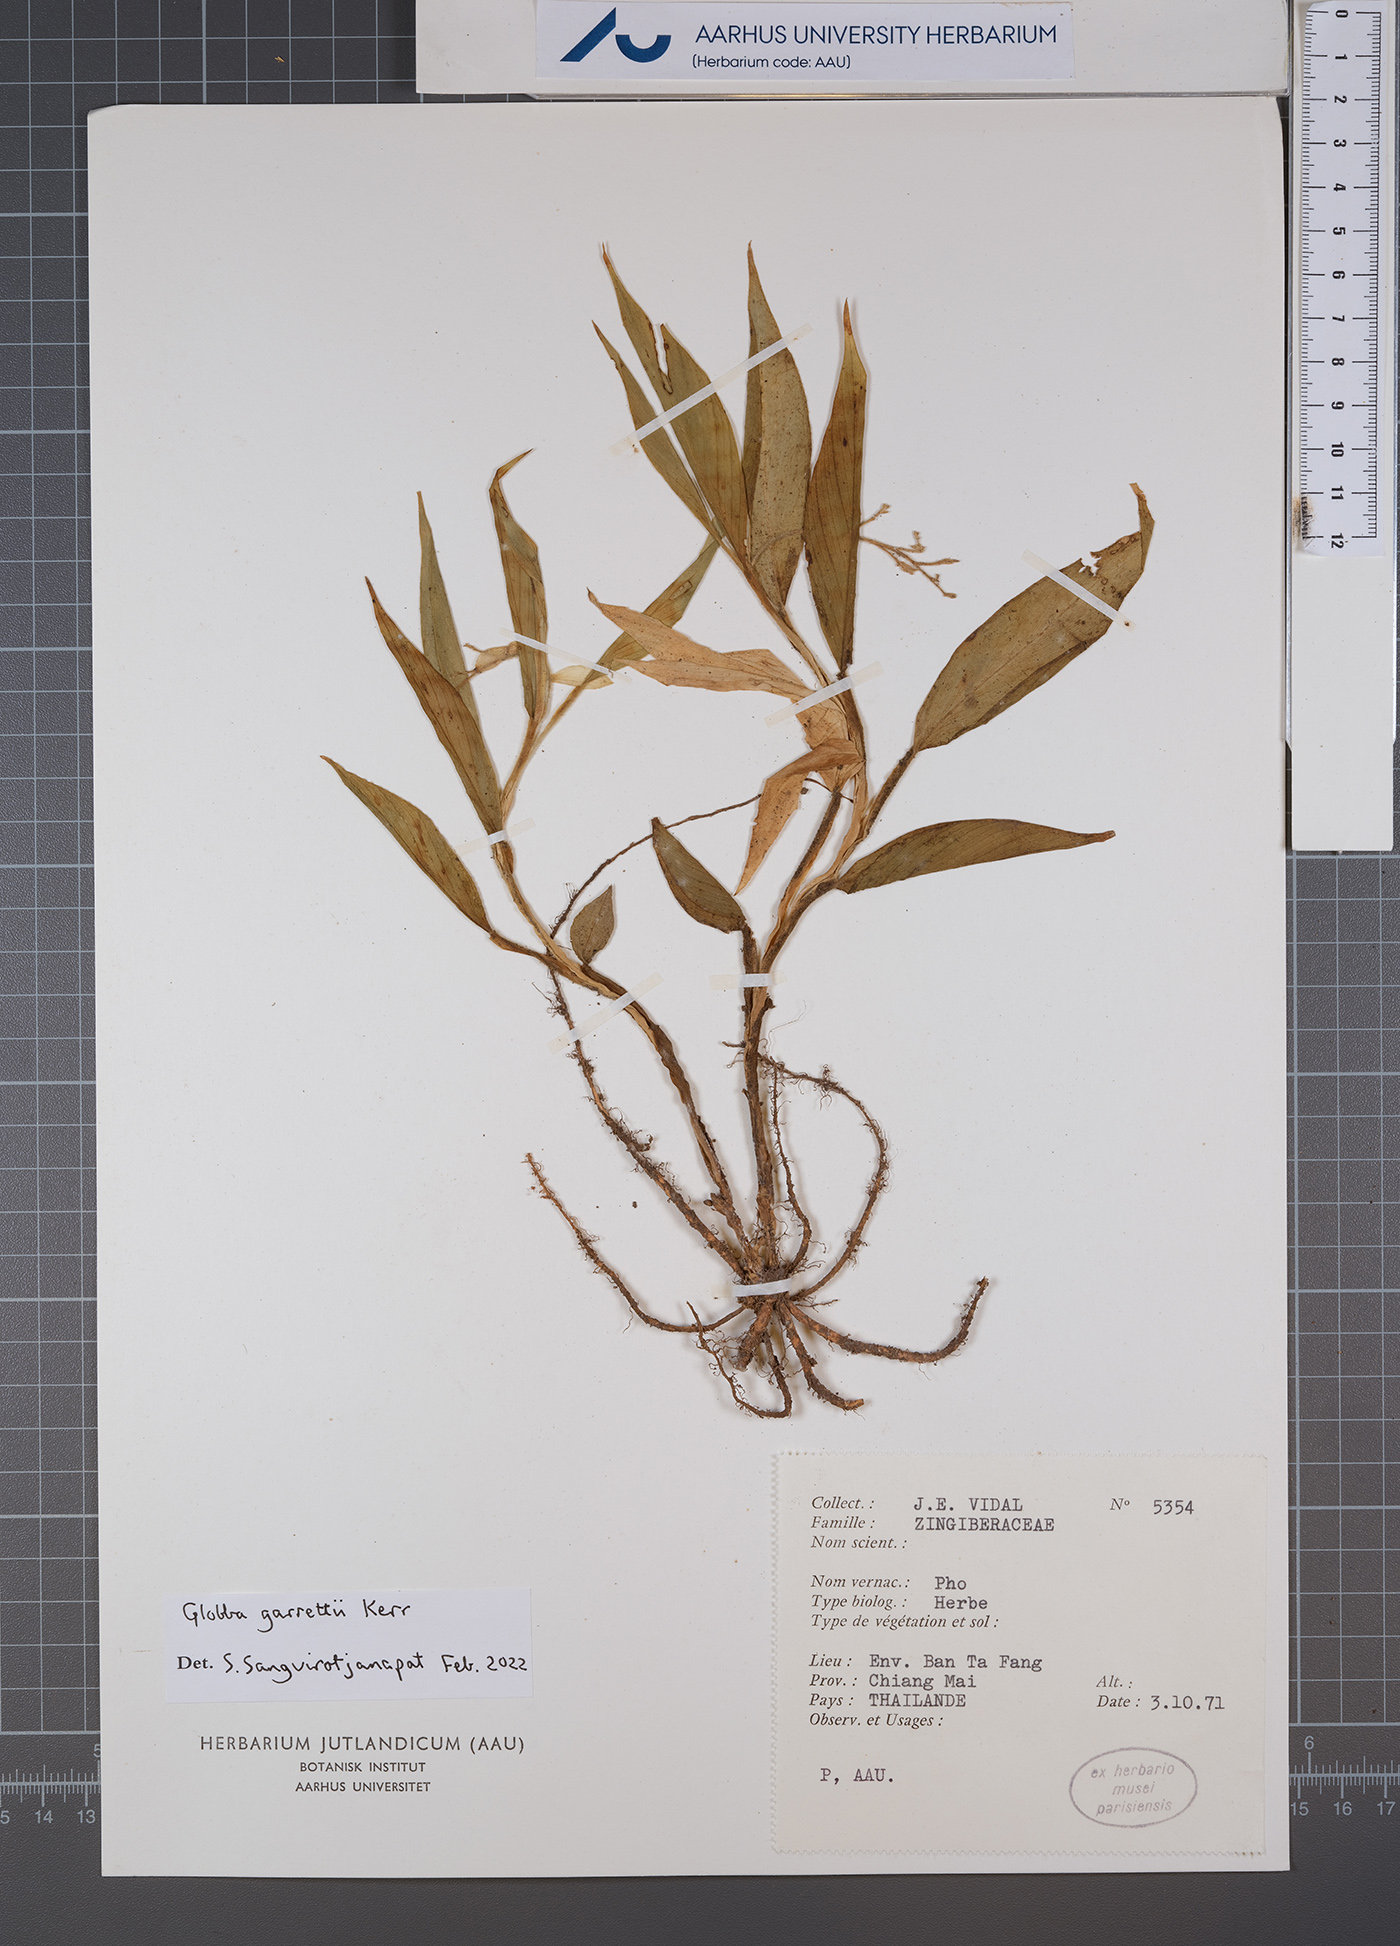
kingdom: Plantae
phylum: Tracheophyta
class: Liliopsida
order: Zingiberales
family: Zingiberaceae
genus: Globba
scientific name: Globba garrettii
